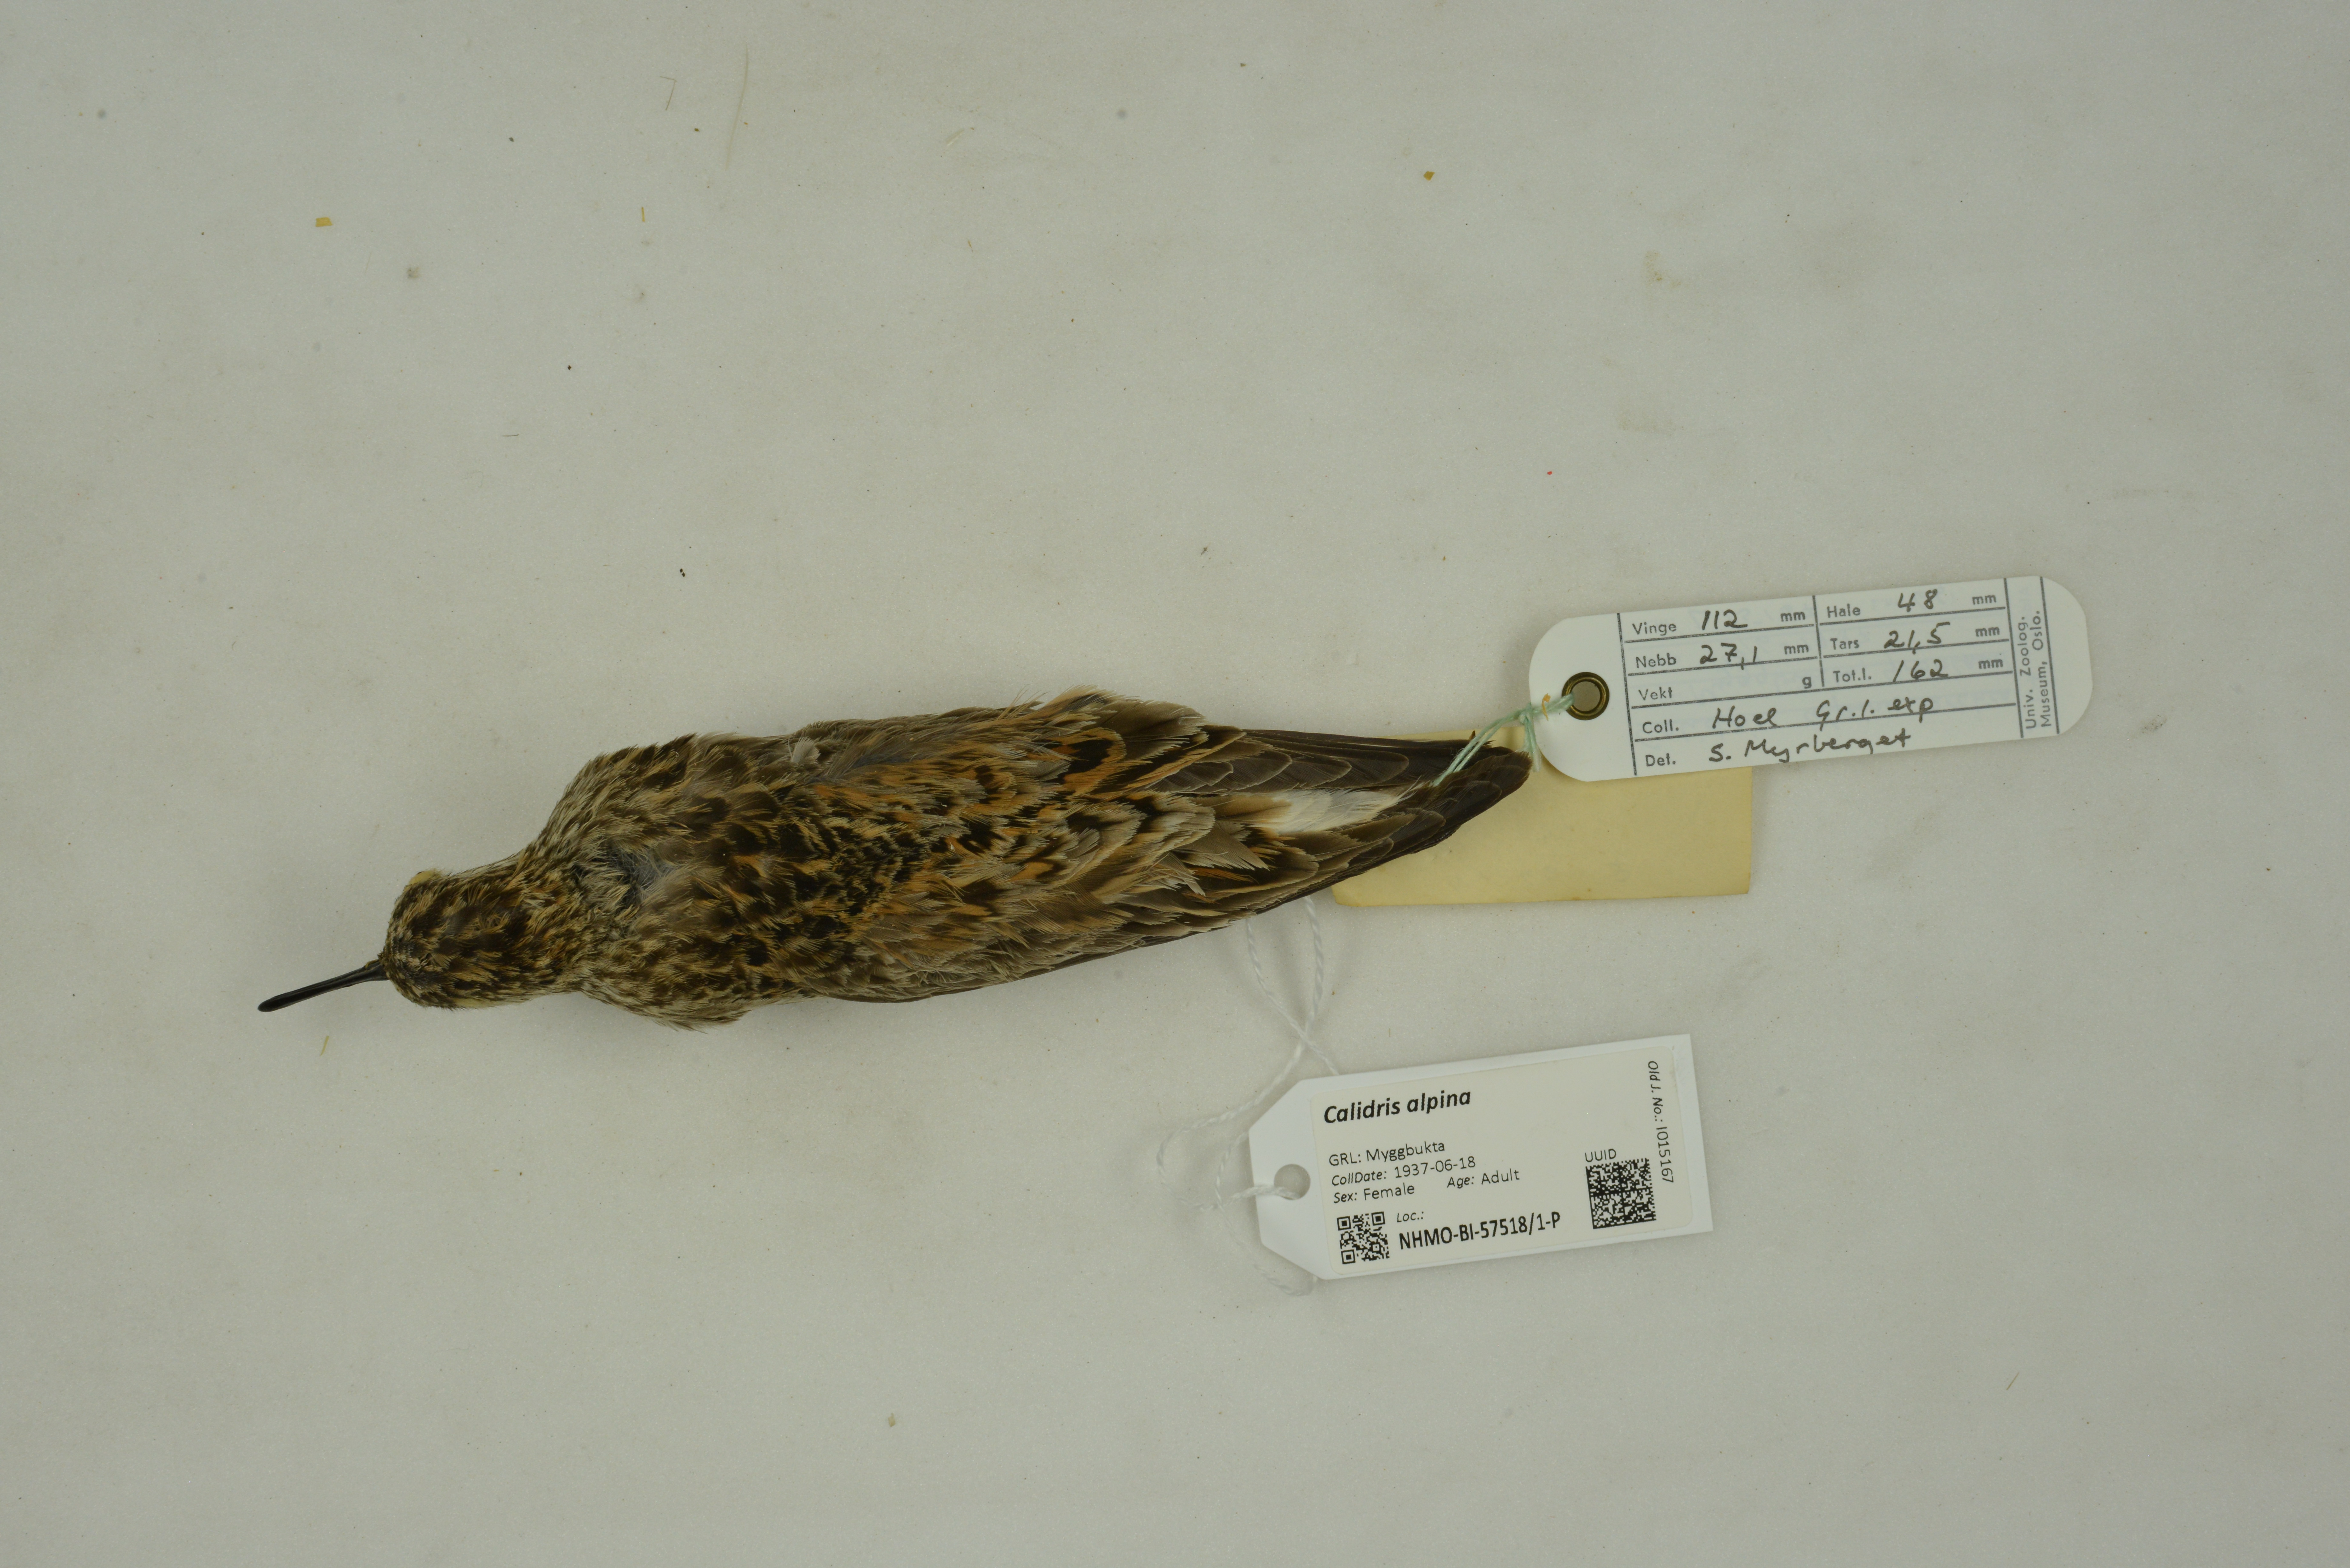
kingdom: Animalia
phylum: Chordata
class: Aves
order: Charadriiformes
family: Scolopacidae
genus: Calidris
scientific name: Calidris alpina
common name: Dunlin
